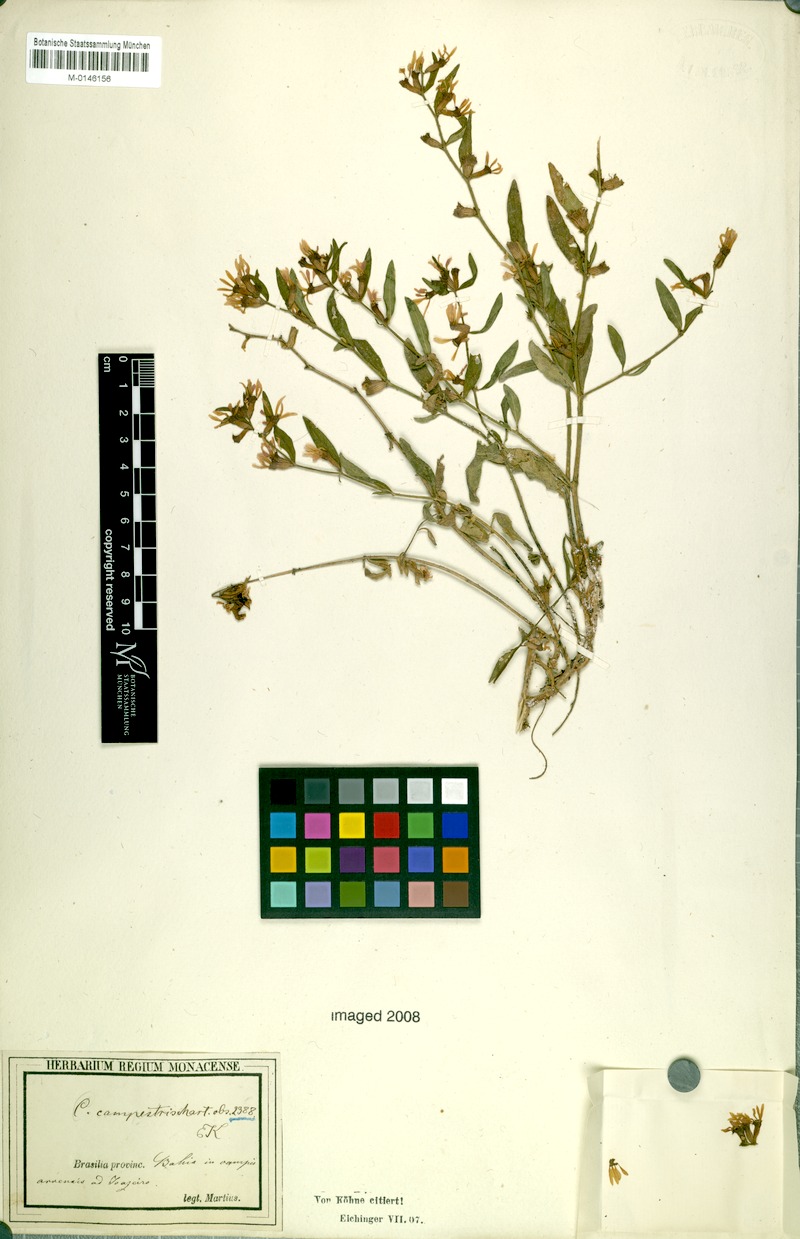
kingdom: Plantae
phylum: Tracheophyta
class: Magnoliopsida
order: Myrtales
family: Lythraceae
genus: Cuphea
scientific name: Cuphea campestris
